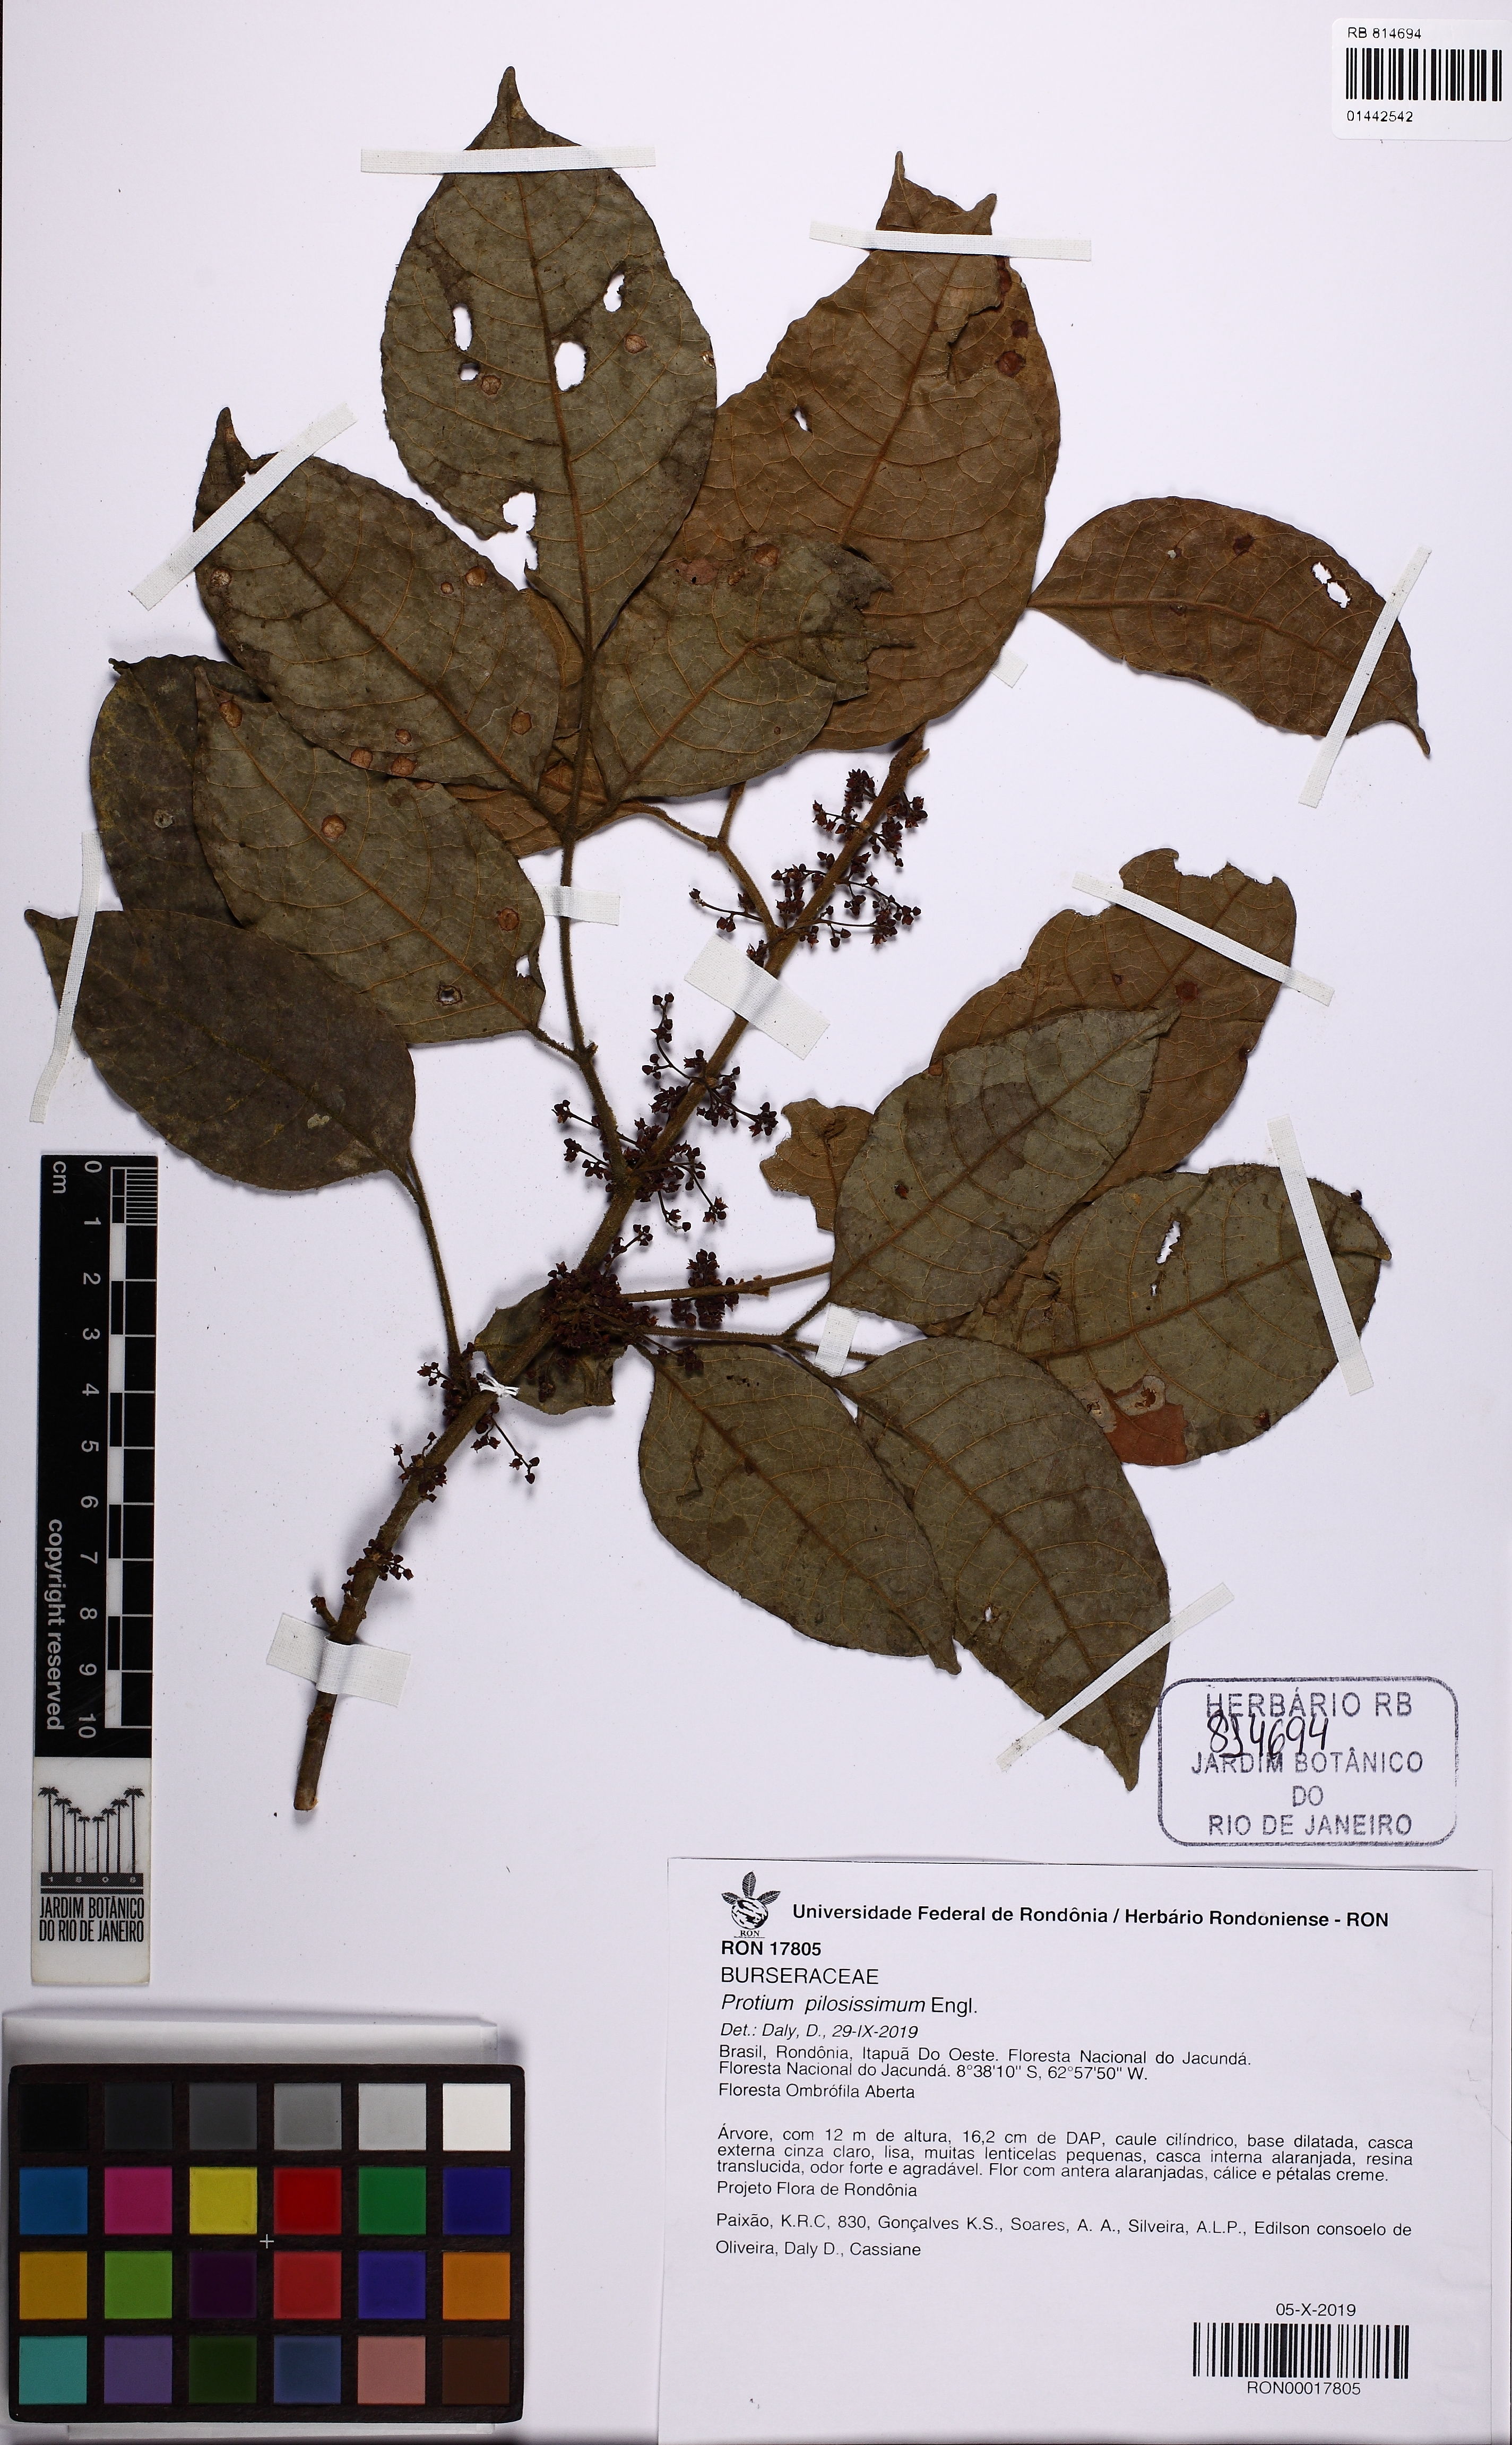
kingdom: Plantae
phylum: Tracheophyta
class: Magnoliopsida
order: Sapindales
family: Burseraceae
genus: Protium
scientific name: Protium pilosellum
